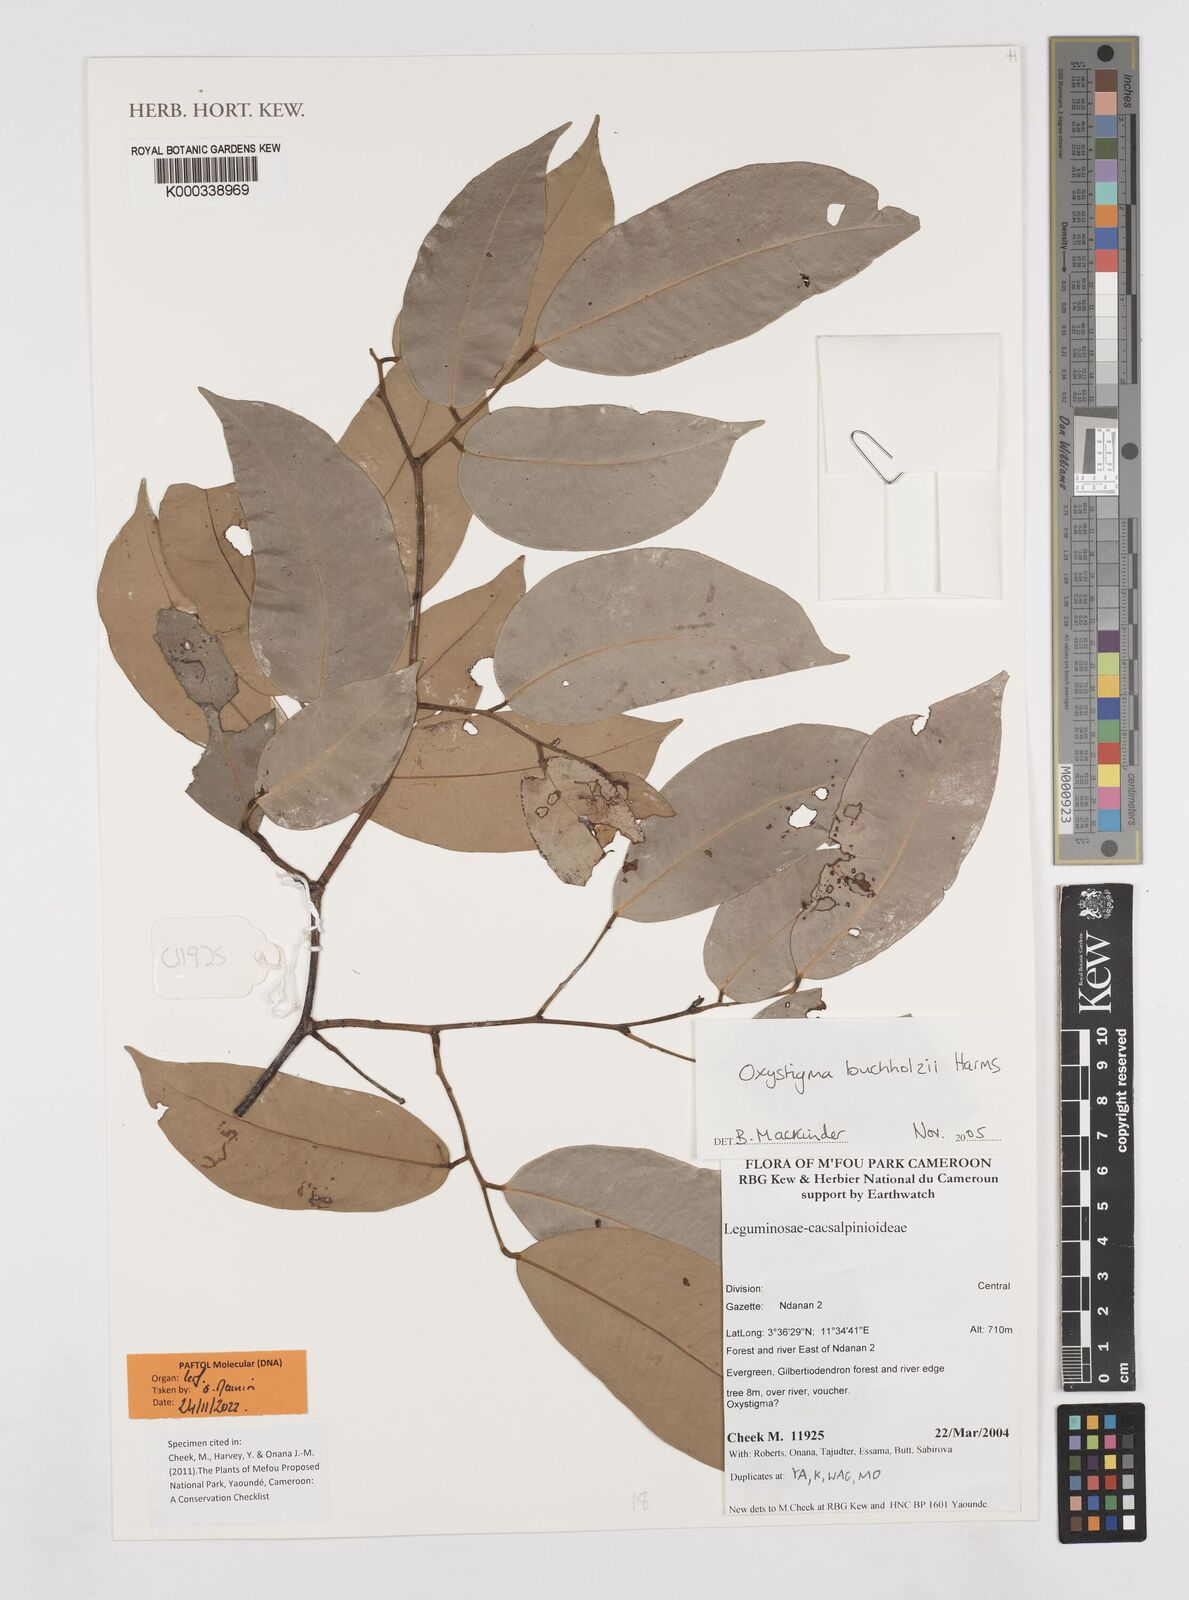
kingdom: Plantae
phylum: Tracheophyta
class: Magnoliopsida
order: Fabales
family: Fabaceae
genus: Prioria
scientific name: Prioria buchholzii
